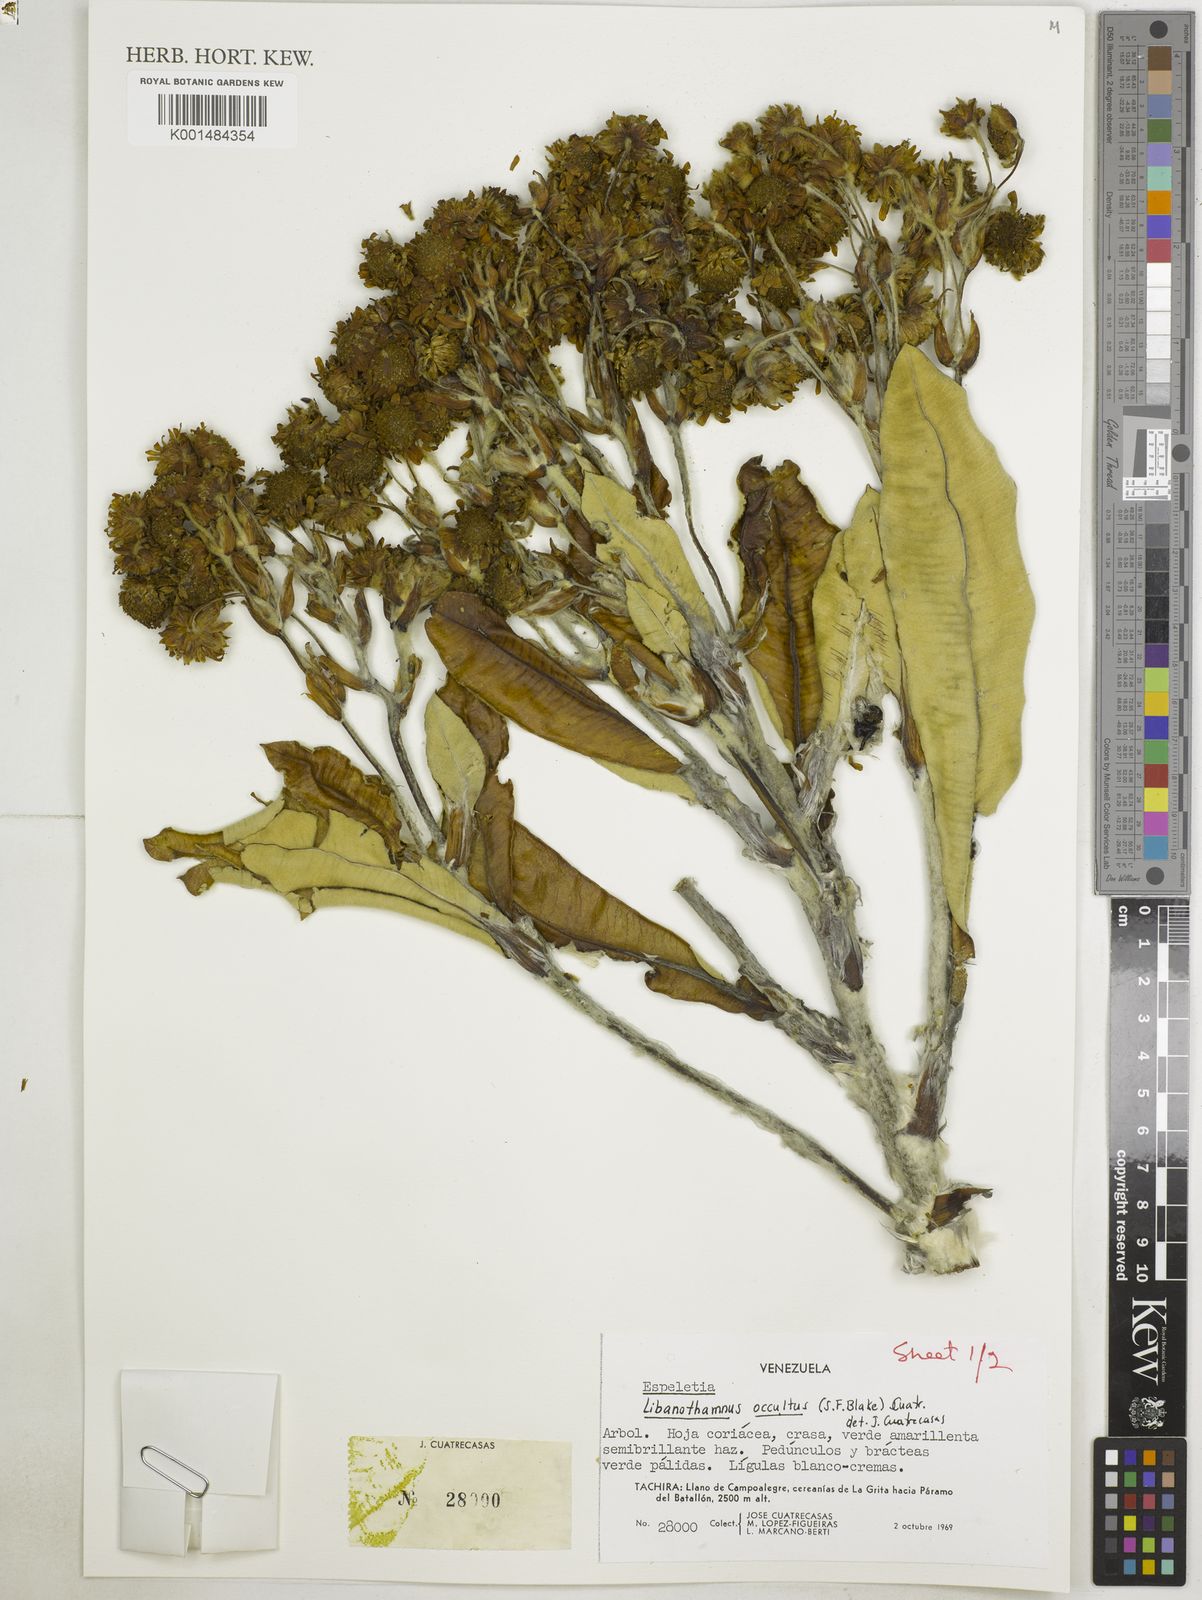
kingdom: Plantae
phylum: Tracheophyta
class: Magnoliopsida
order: Asterales
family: Asteraceae
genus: Espeletia
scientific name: Espeletia occulta
